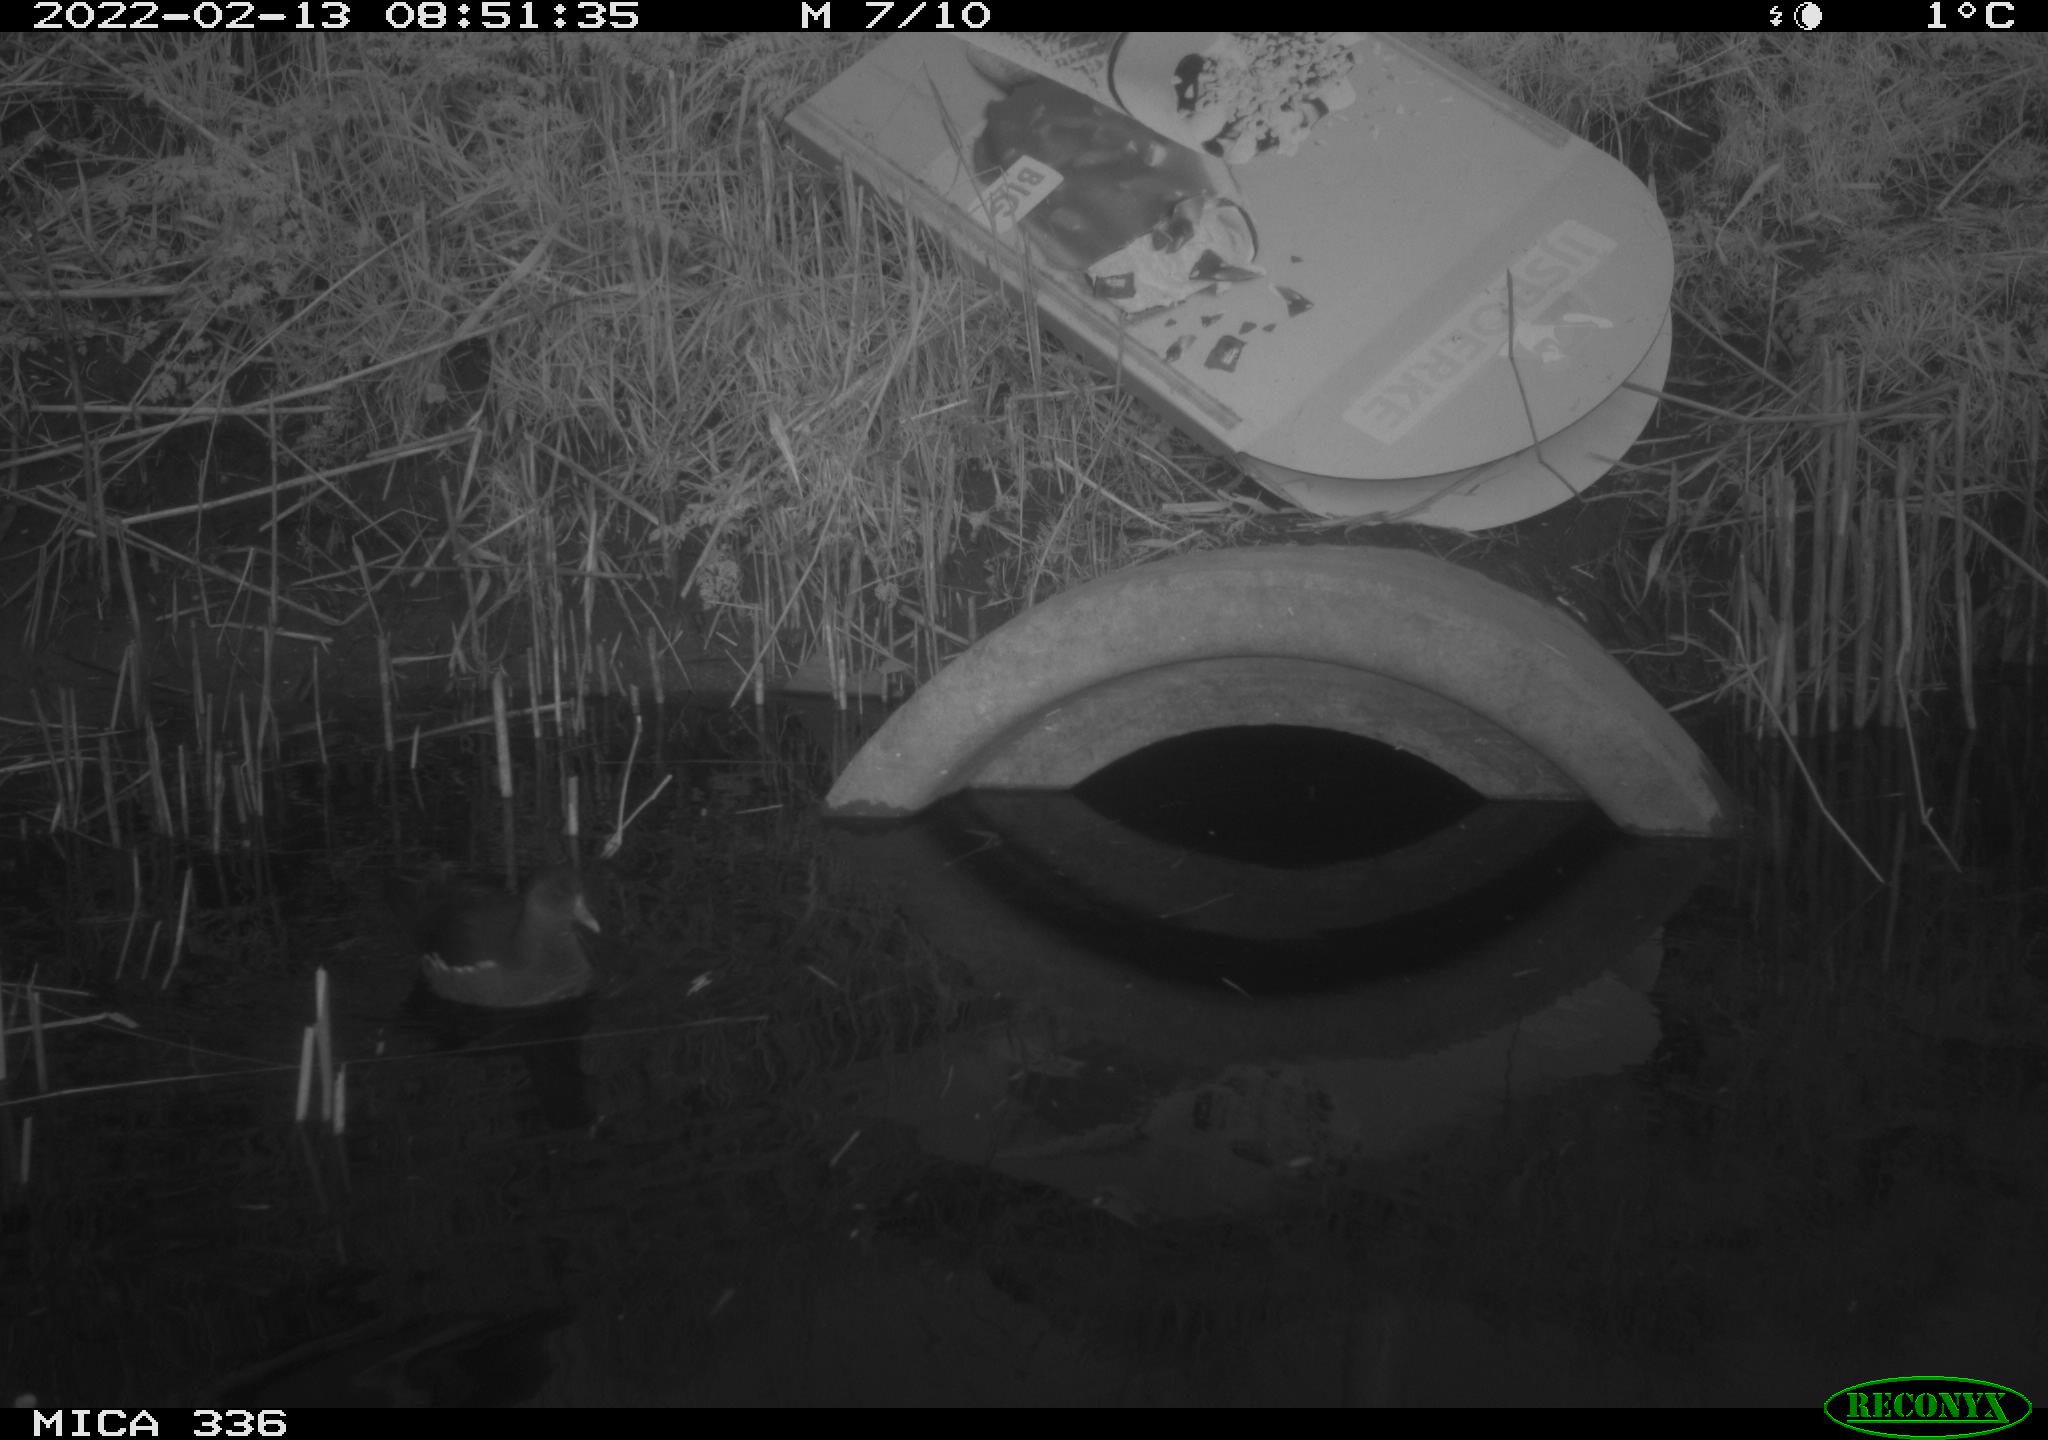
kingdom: Animalia
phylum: Chordata
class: Aves
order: Gruiformes
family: Rallidae
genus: Gallinula
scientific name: Gallinula chloropus
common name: Common moorhen
